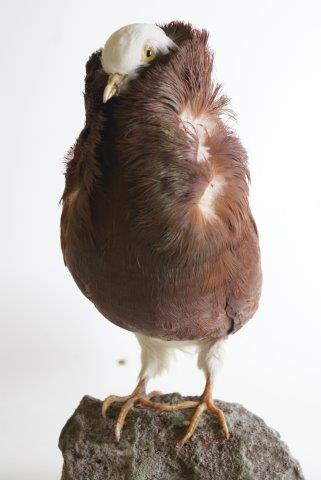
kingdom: Animalia
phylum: Chordata
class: Aves
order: Columbiformes
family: Columbidae
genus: Columba
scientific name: Columba livia
